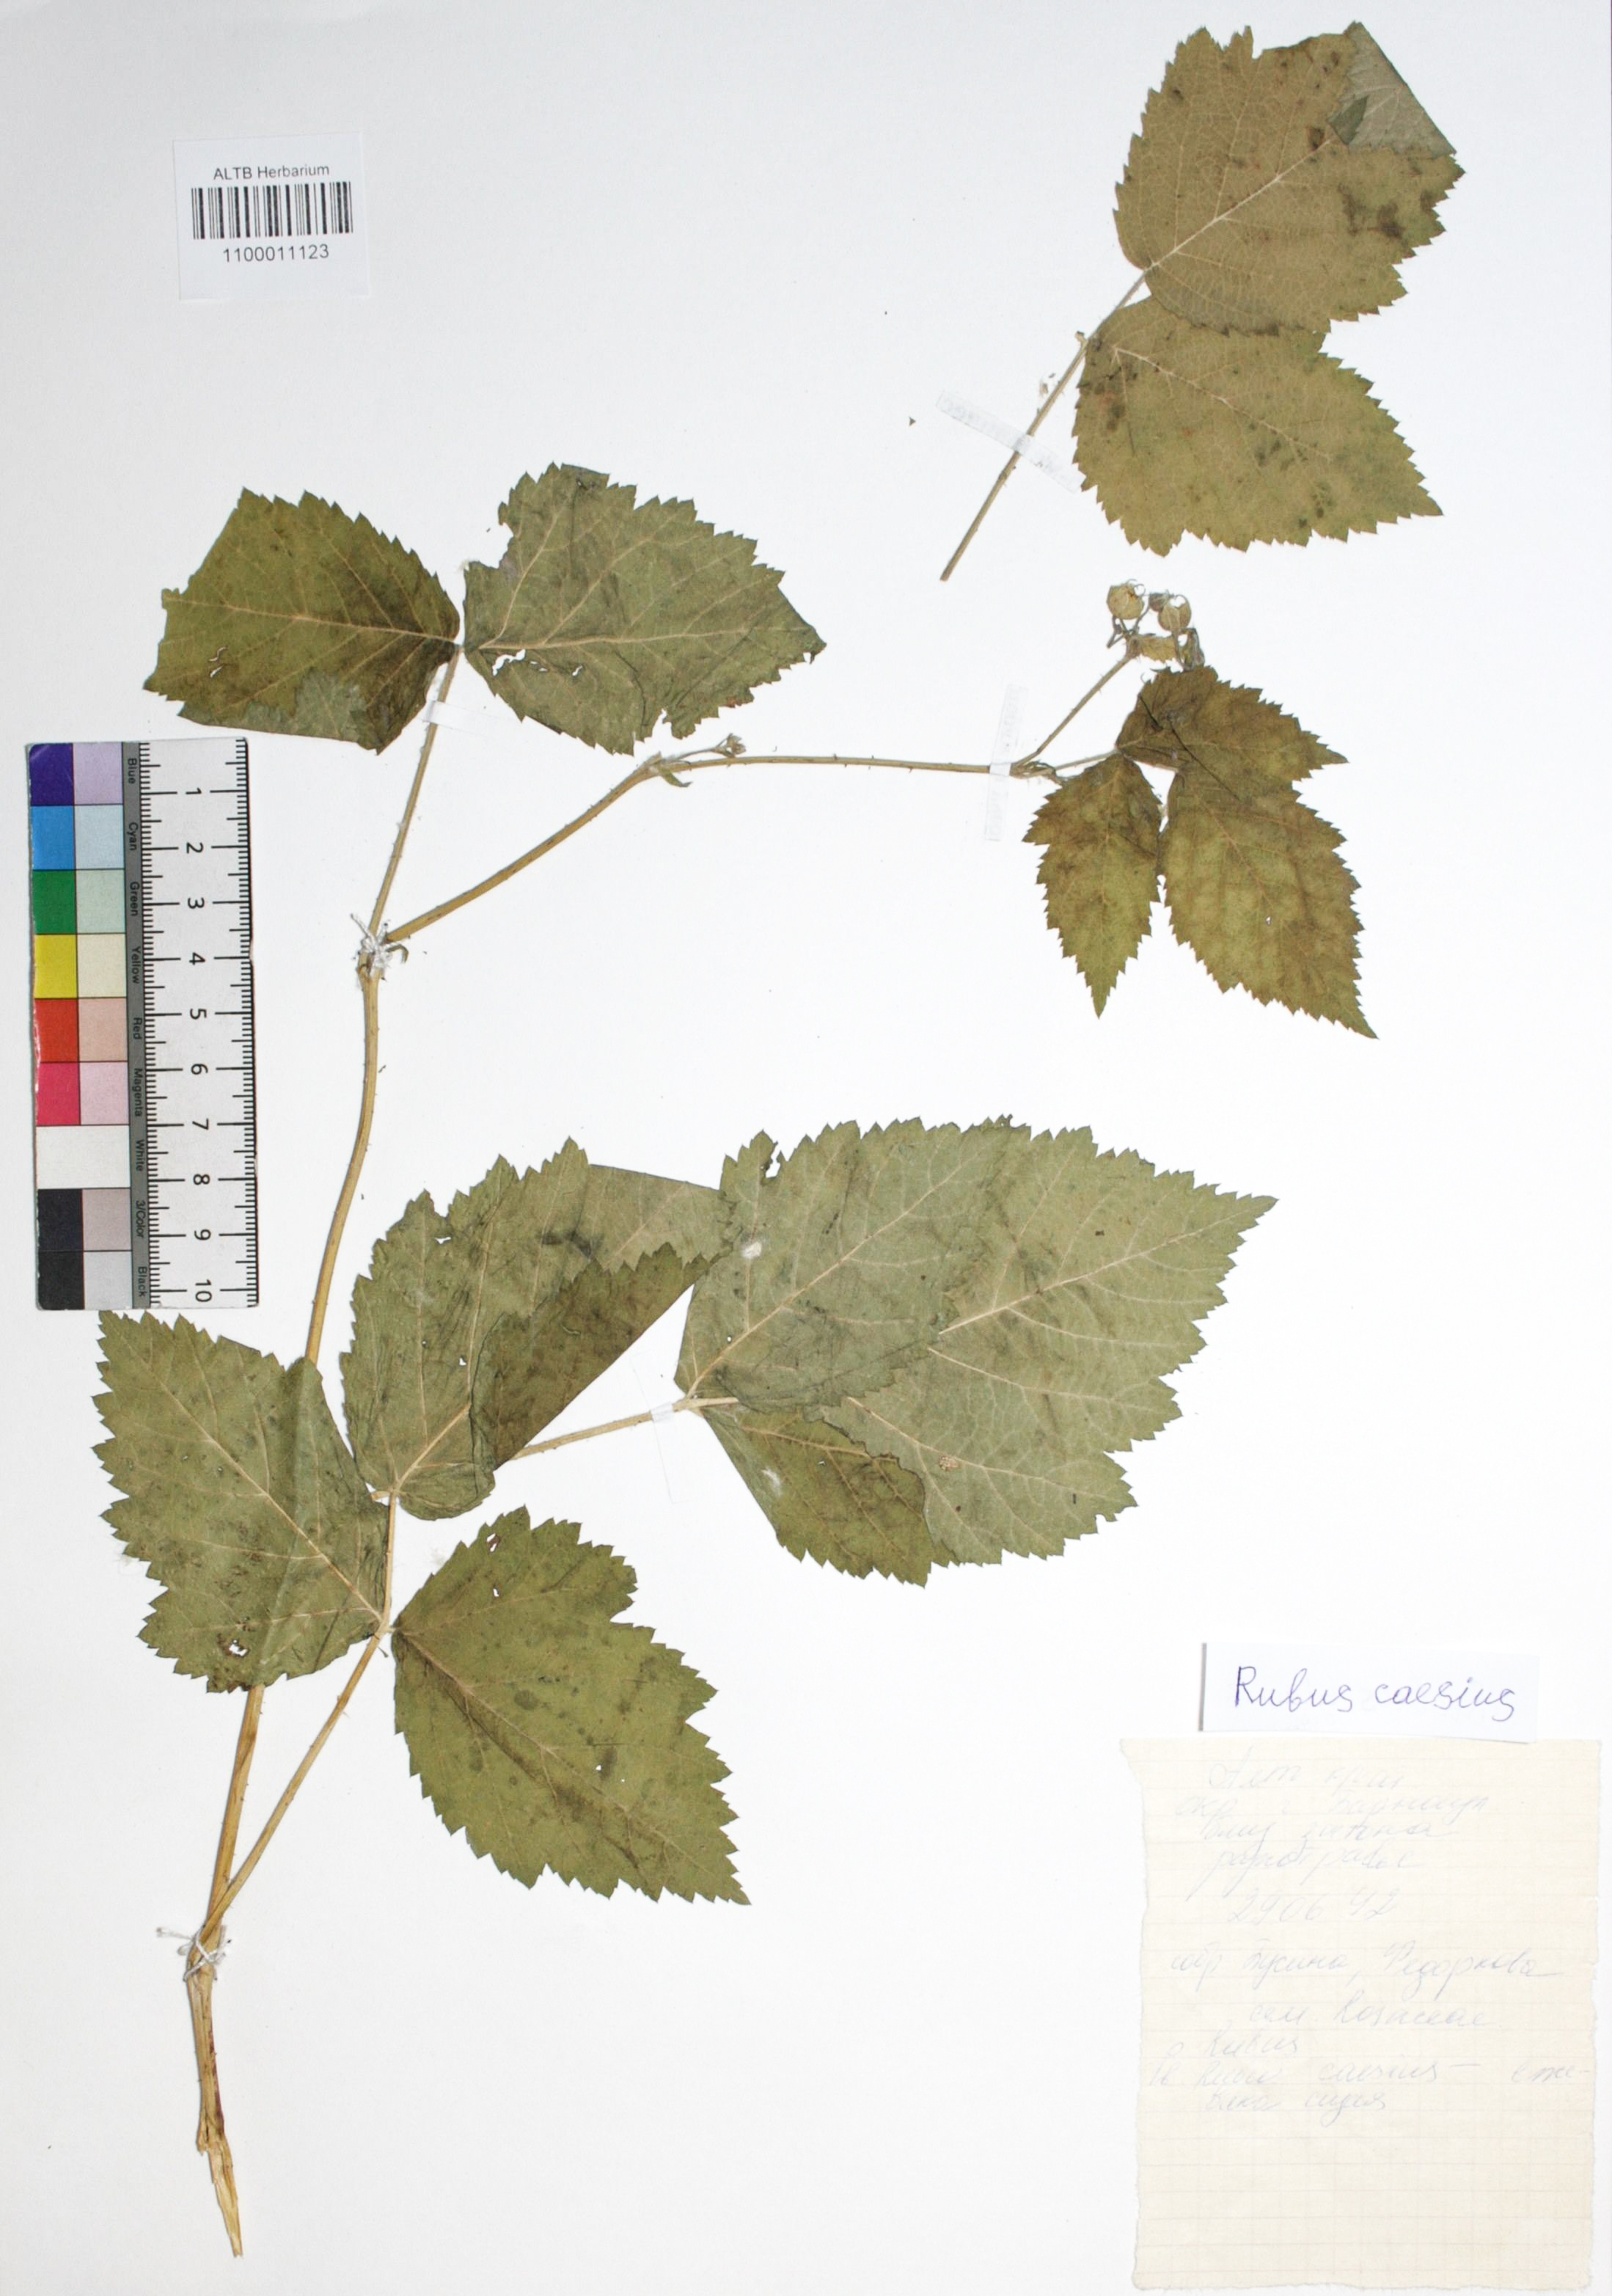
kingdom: Plantae
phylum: Tracheophyta
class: Magnoliopsida
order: Rosales
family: Rosaceae
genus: Rubus
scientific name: Rubus caesius
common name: Dewberry
